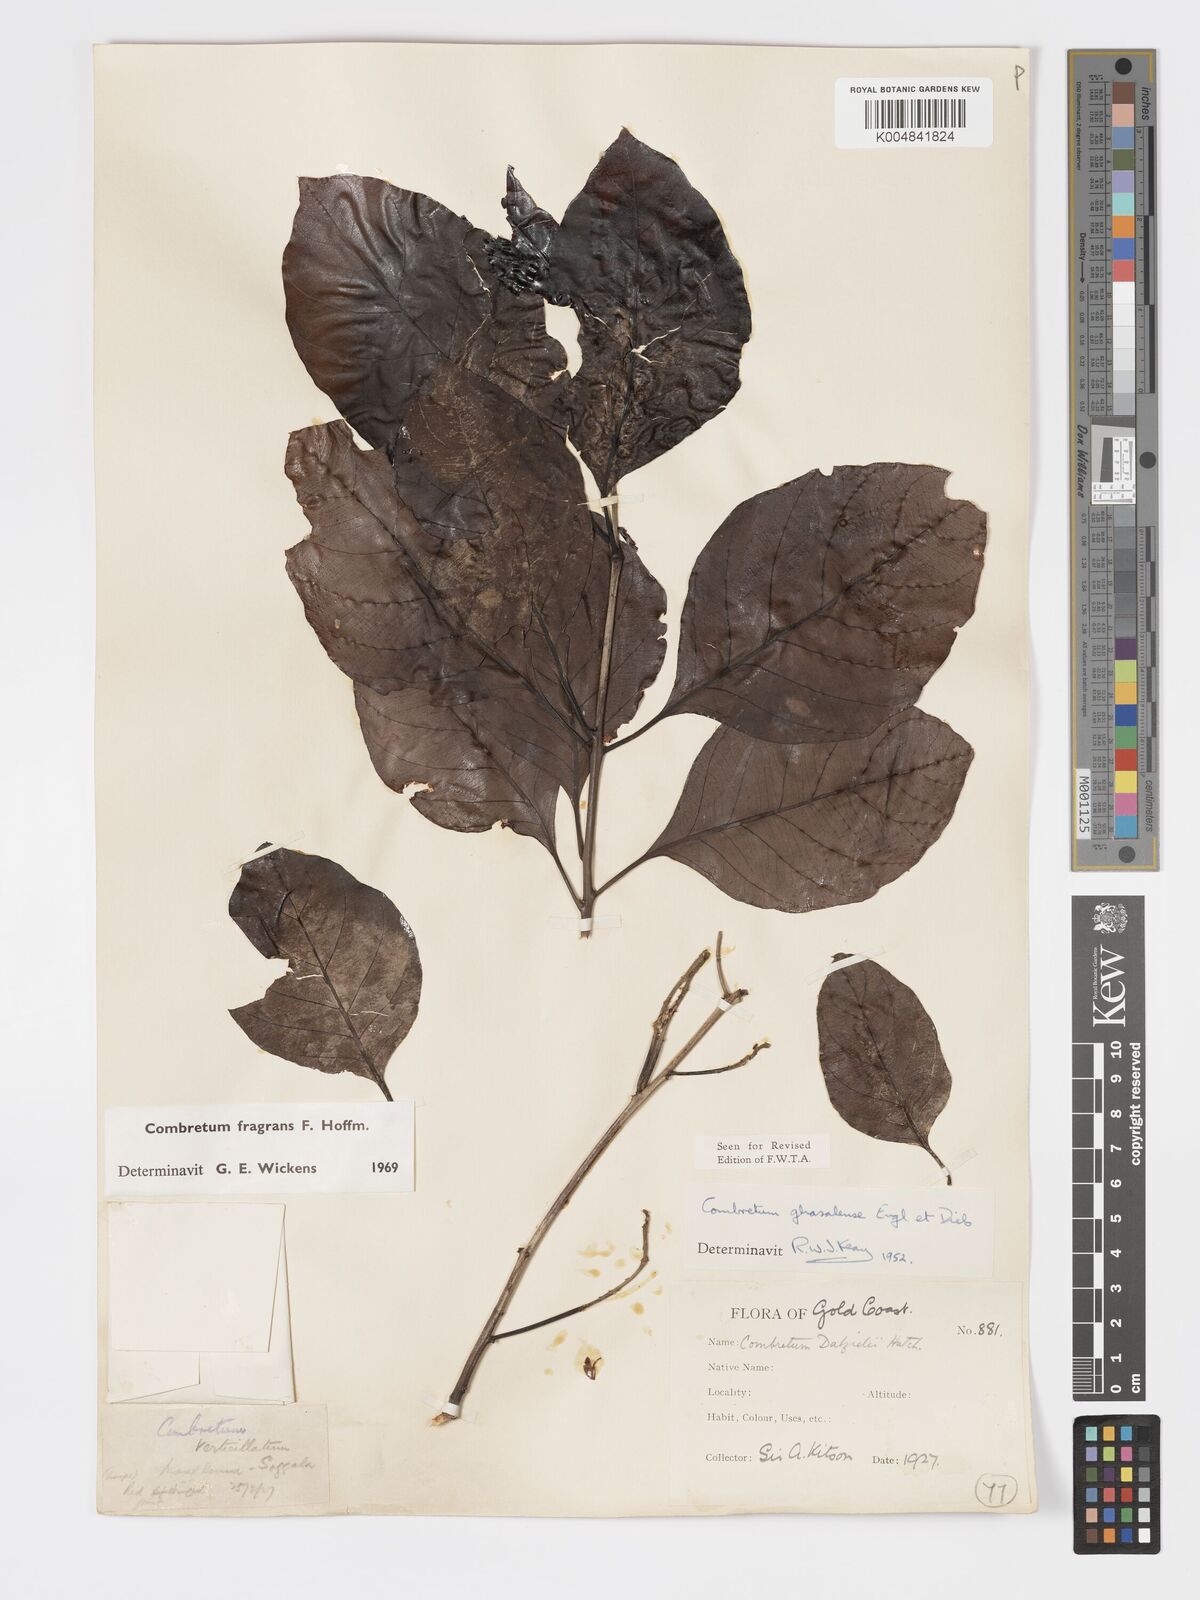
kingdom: Plantae
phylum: Tracheophyta
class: Magnoliopsida
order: Myrtales
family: Combretaceae
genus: Combretum
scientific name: Combretum adenogonium
